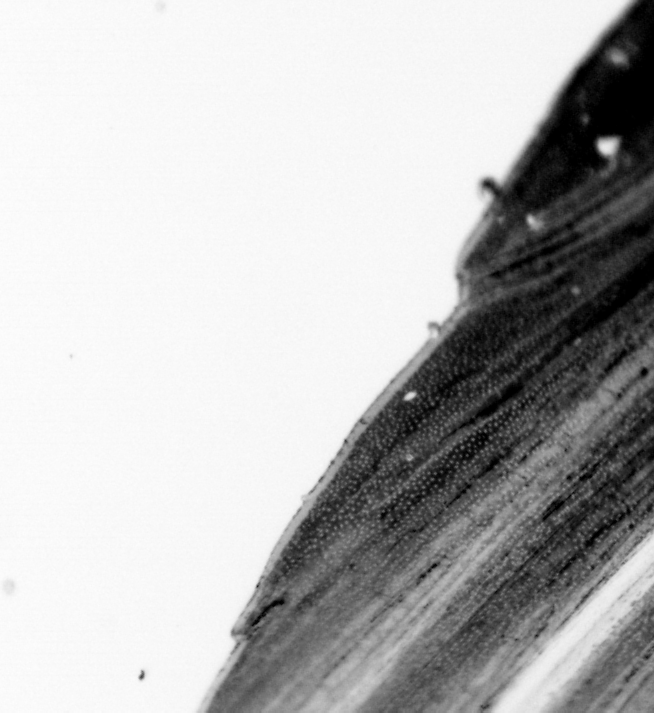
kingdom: Animalia
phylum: Chordata
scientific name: Chordata
